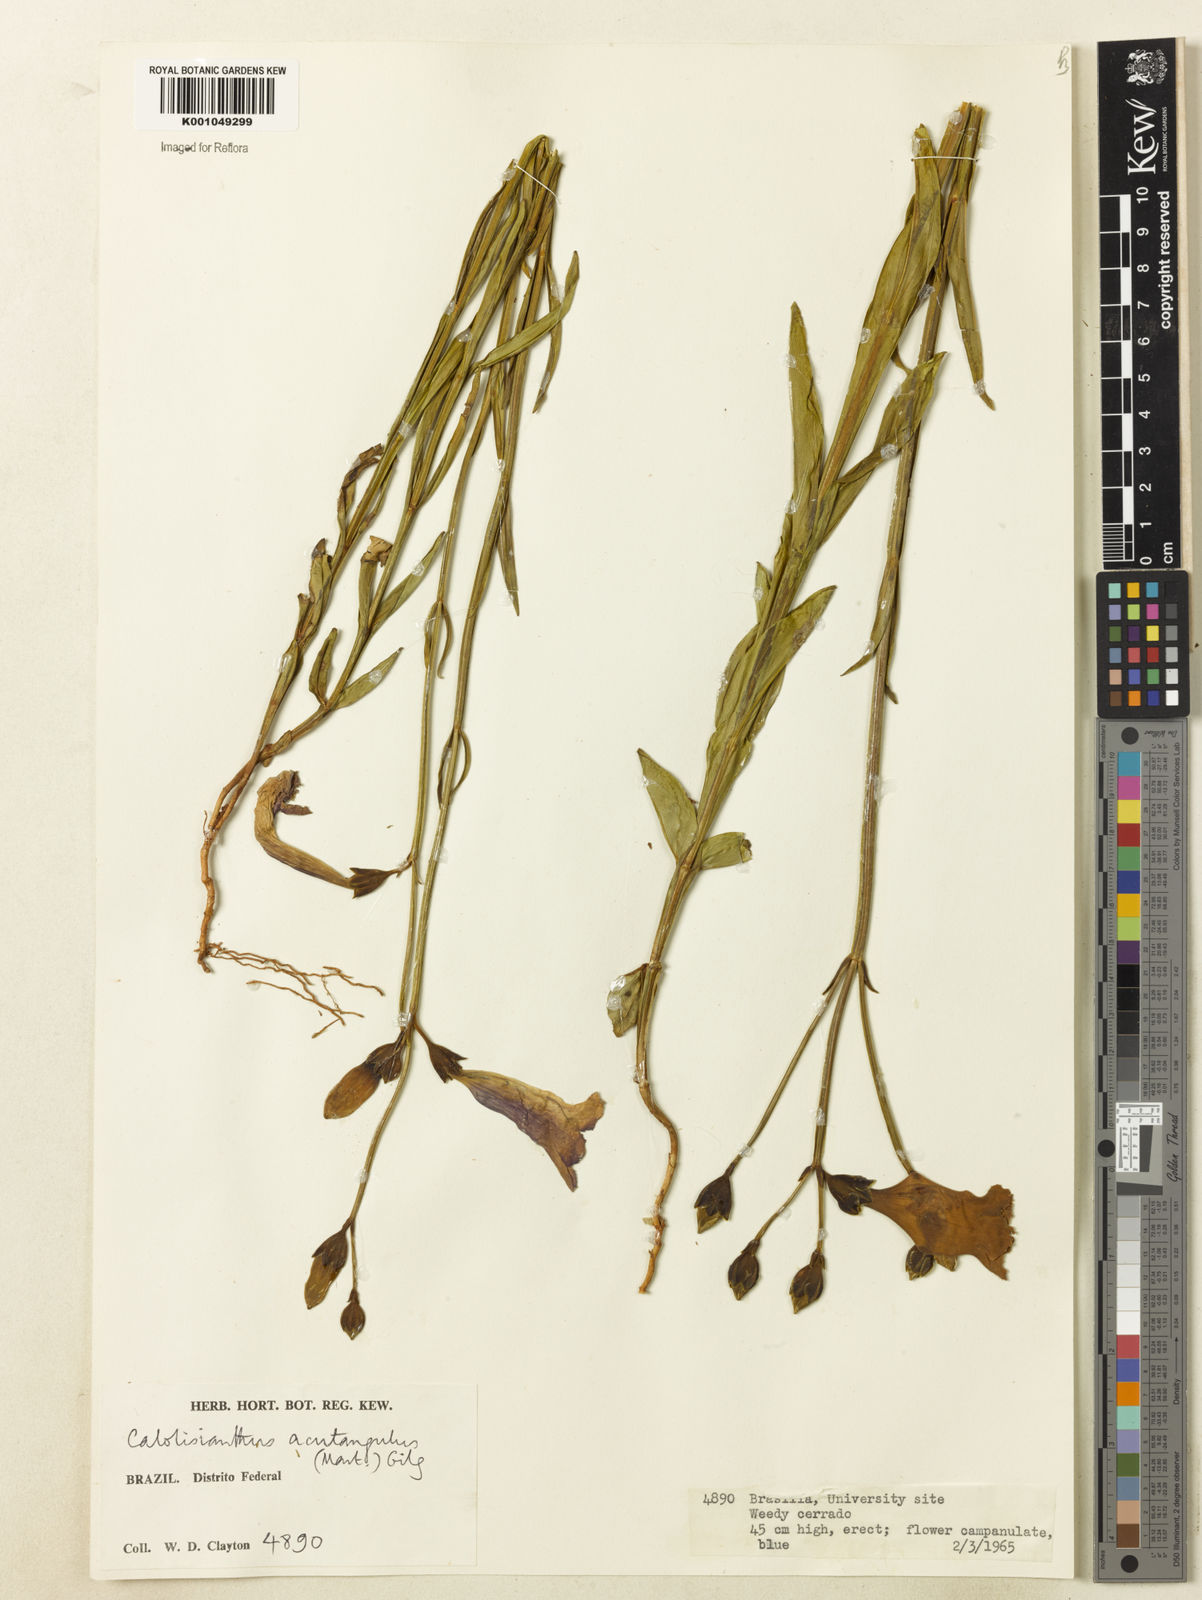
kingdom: Plantae
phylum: Tracheophyta
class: Magnoliopsida
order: Gentianales
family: Gentianaceae
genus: Lisianthius
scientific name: Lisianthius tetragonoalatus
